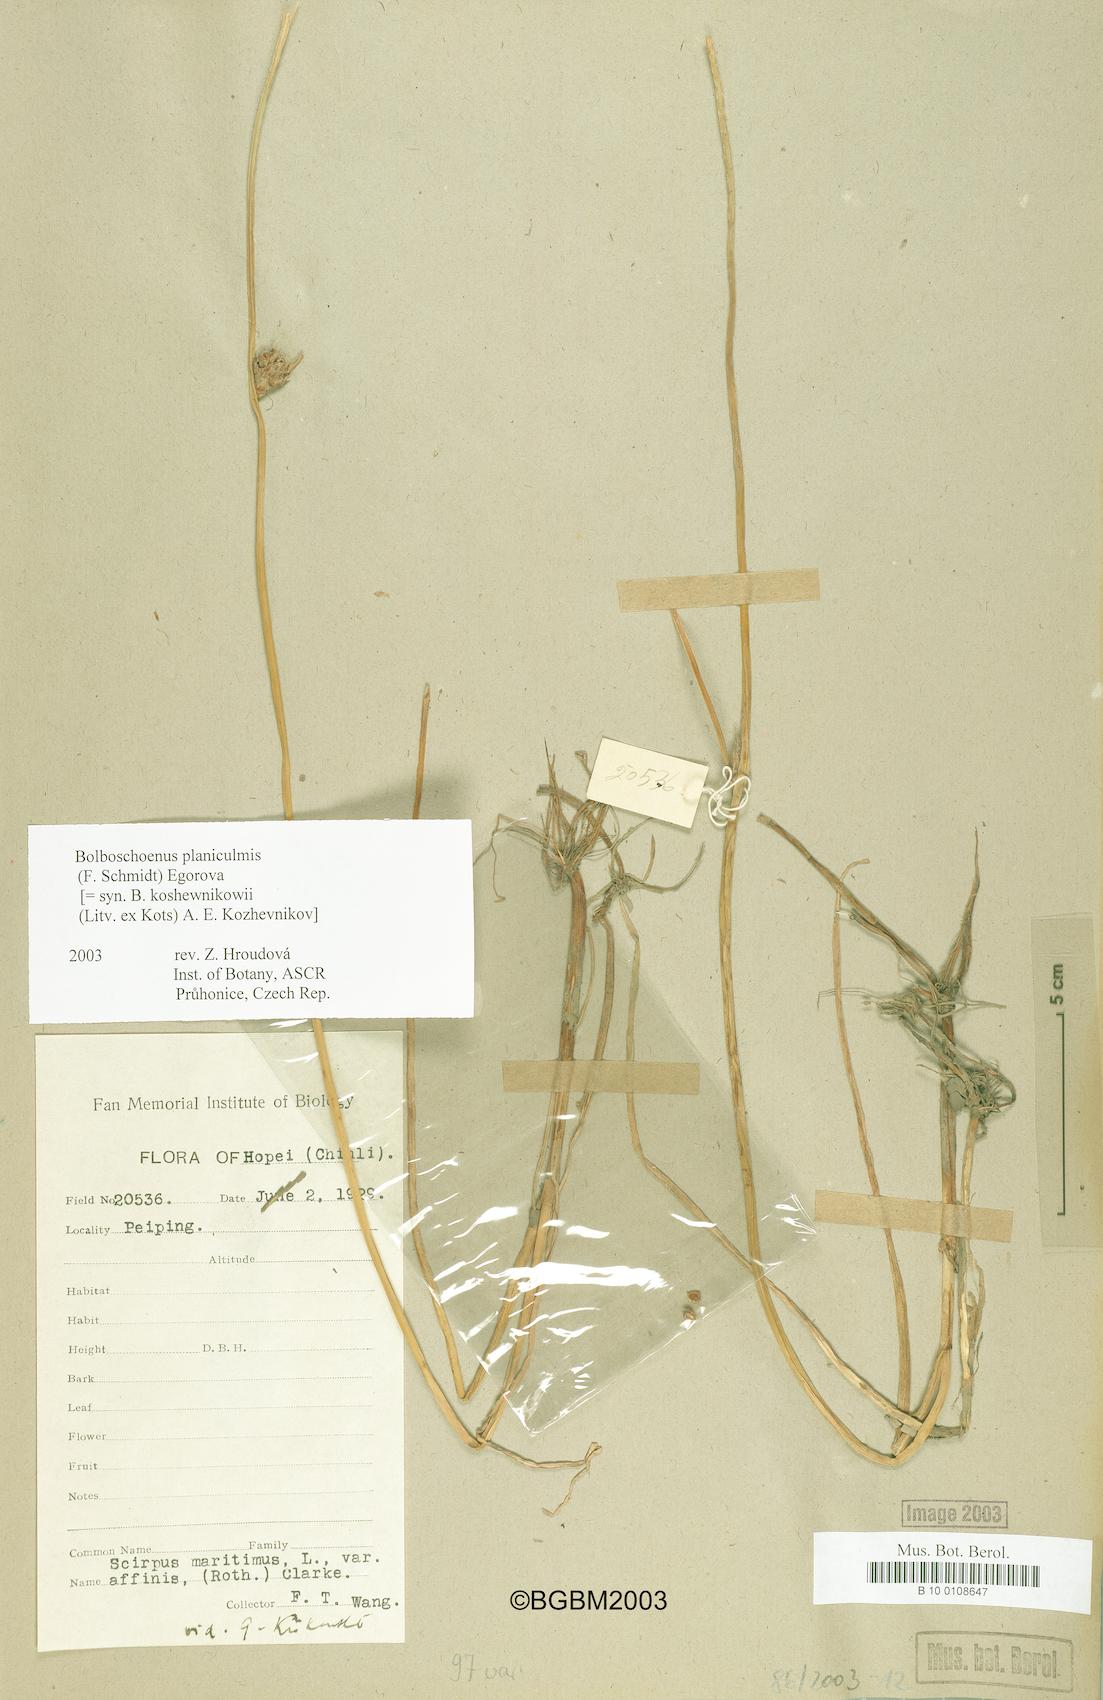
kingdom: Plantae
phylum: Tracheophyta
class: Liliopsida
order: Poales
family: Cyperaceae
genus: Bolboschoenus
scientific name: Bolboschoenus planiculmis
